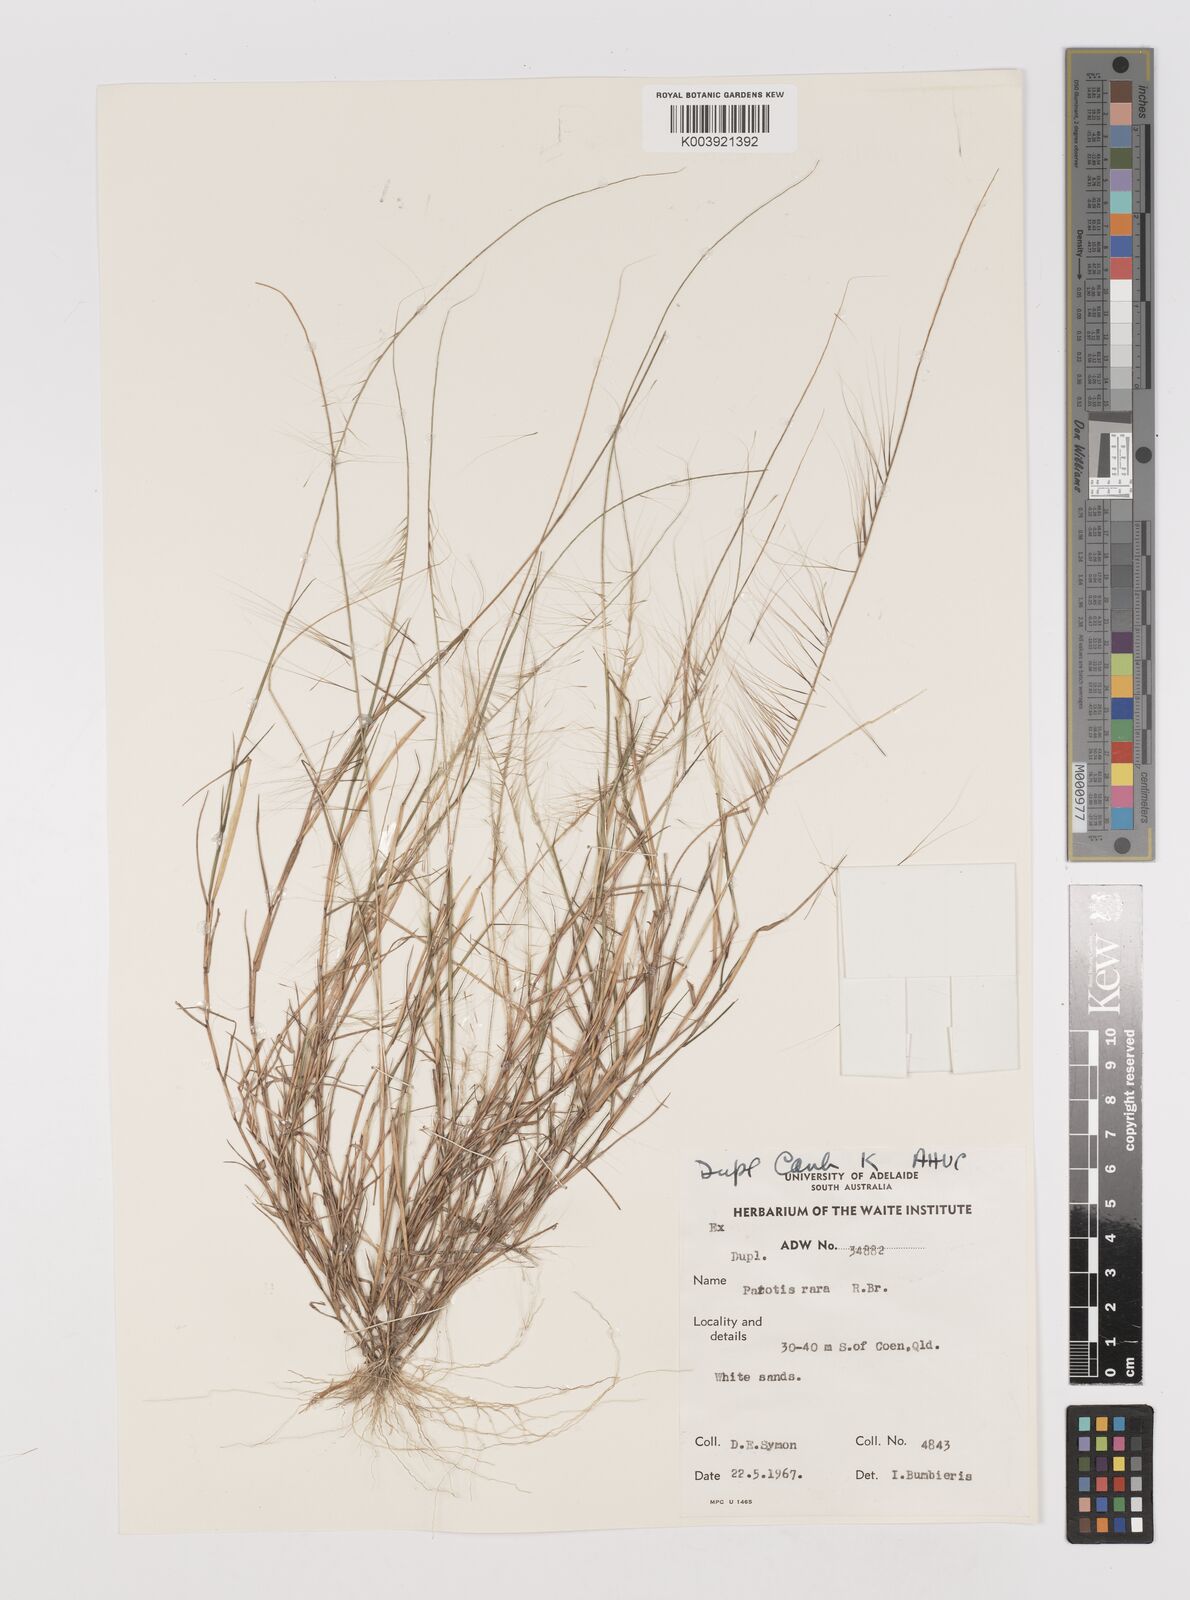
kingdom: Plantae
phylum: Tracheophyta
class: Liliopsida
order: Poales
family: Poaceae
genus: Perotis
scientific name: Perotis rara
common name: Comet grass
